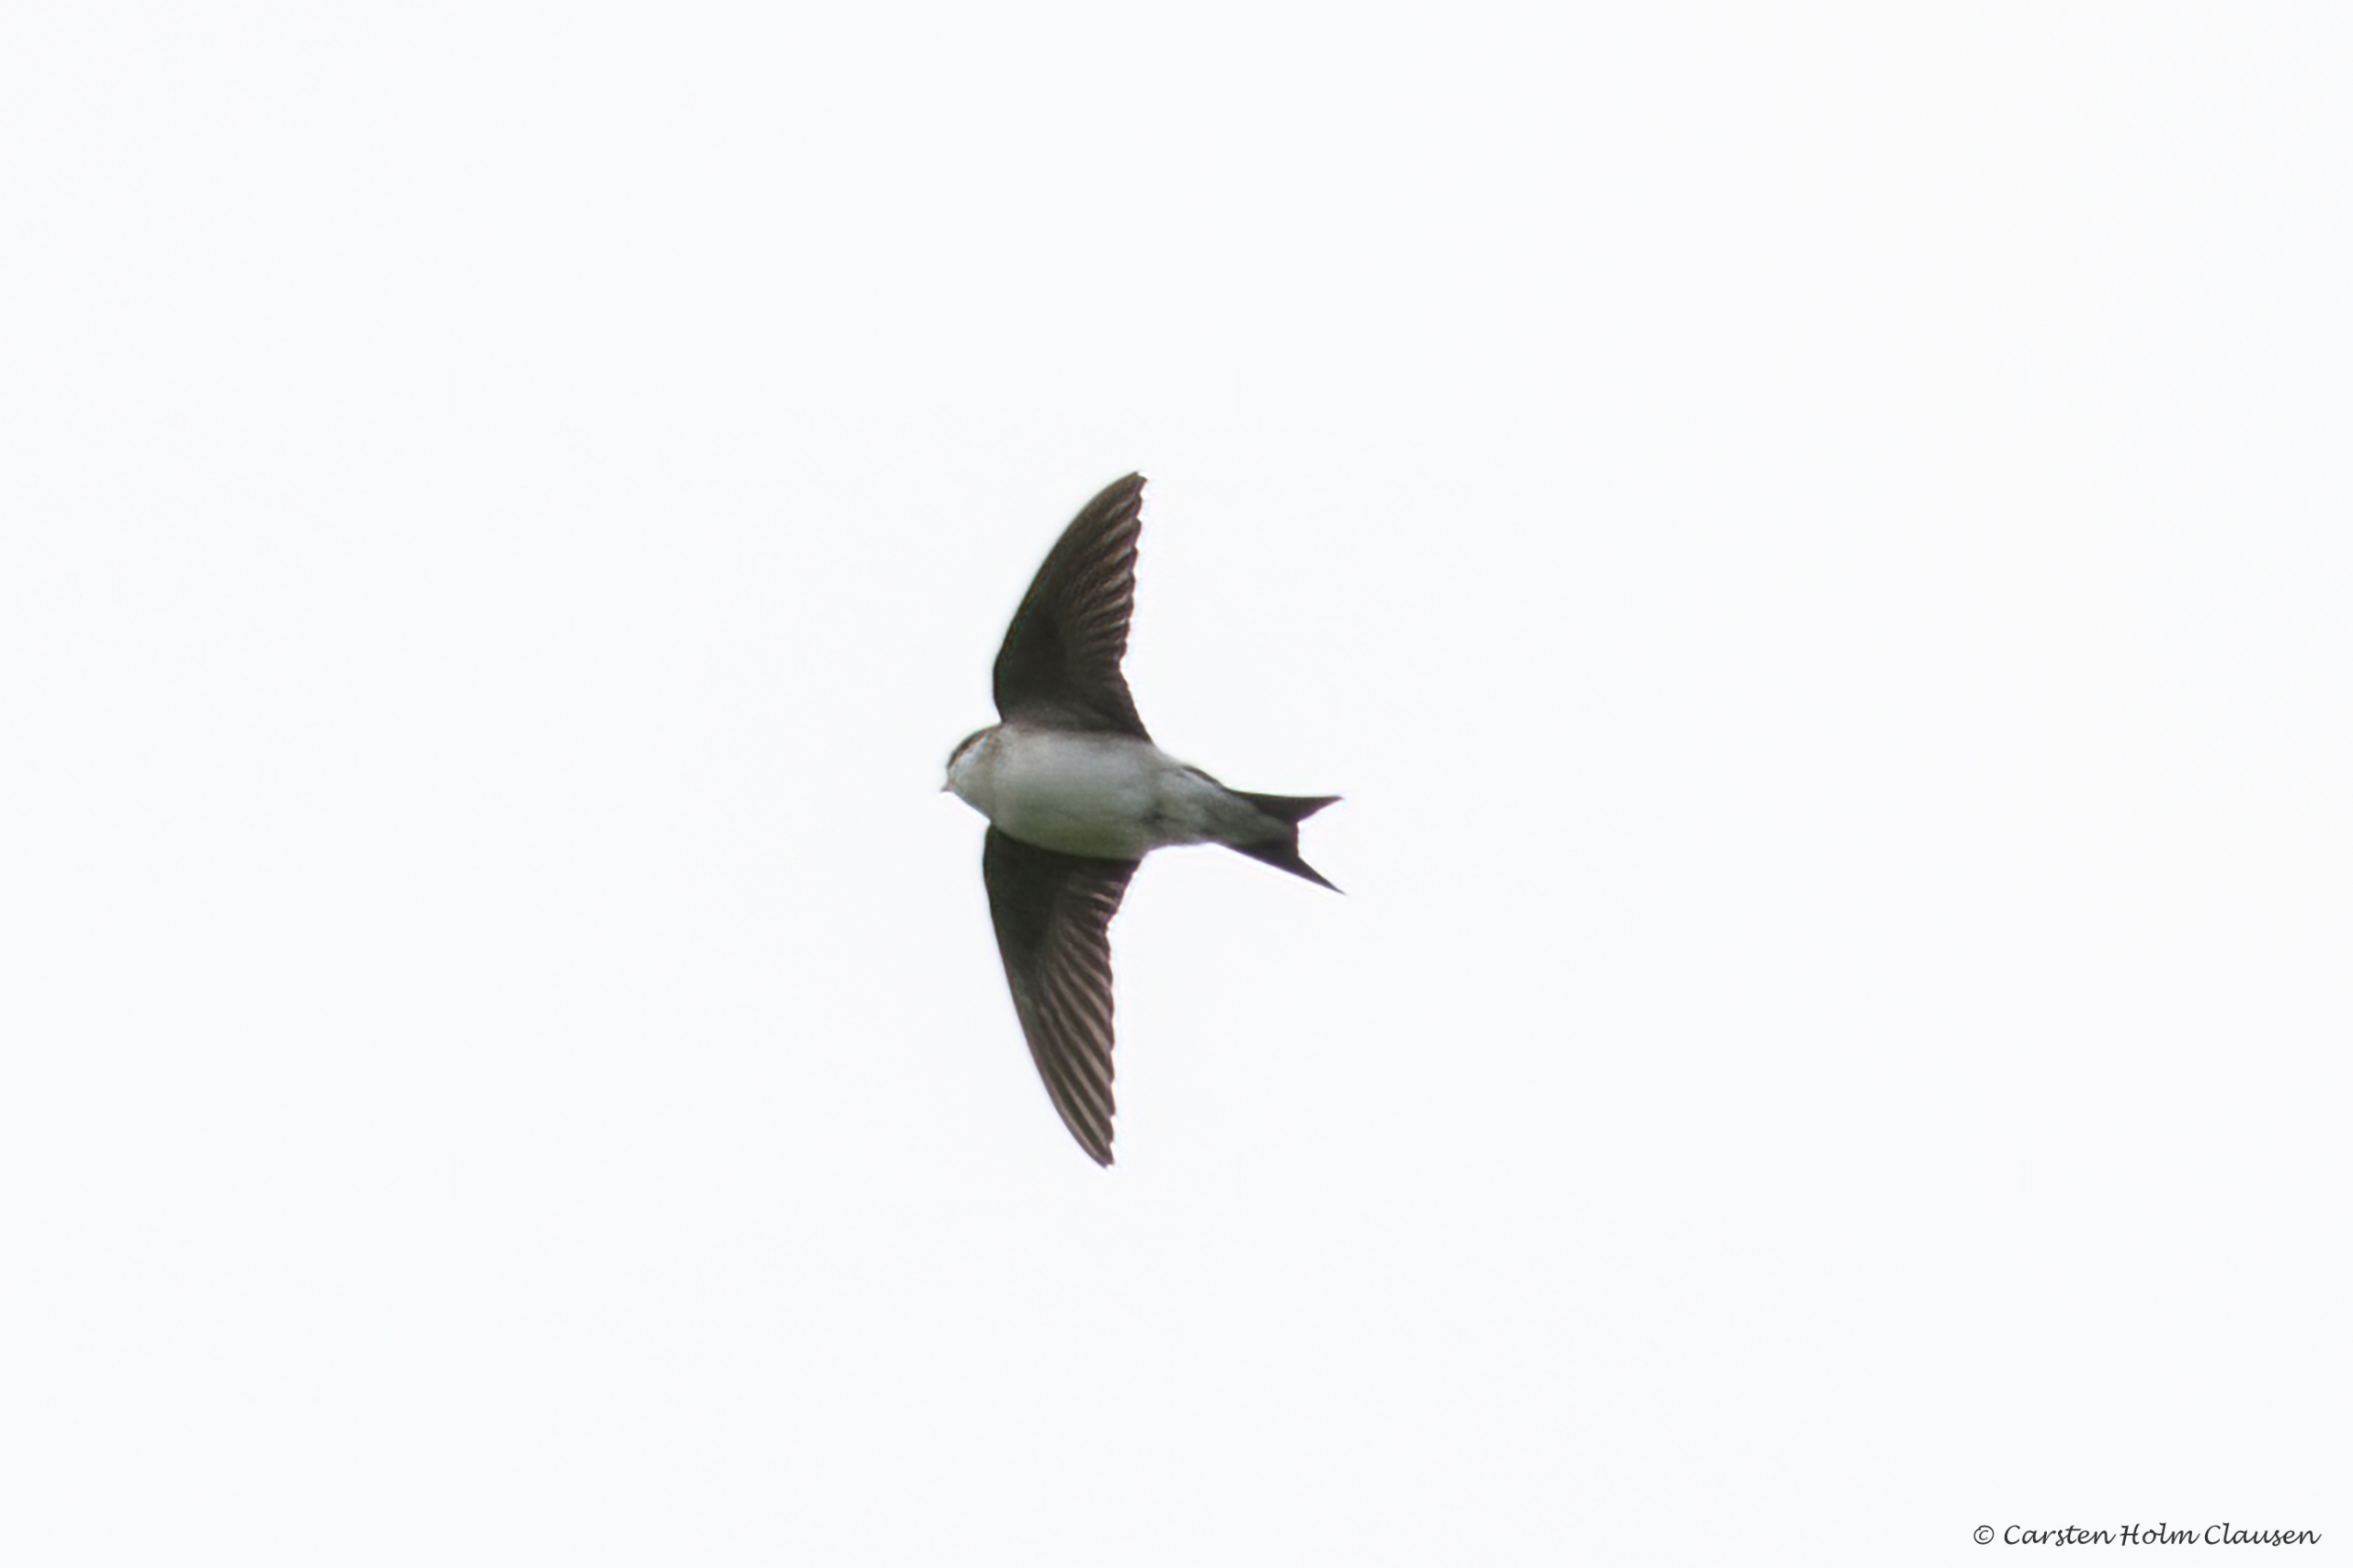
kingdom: Animalia
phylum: Chordata
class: Aves
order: Passeriformes
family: Hirundinidae
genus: Delichon
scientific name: Delichon urbicum
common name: Bysvale
